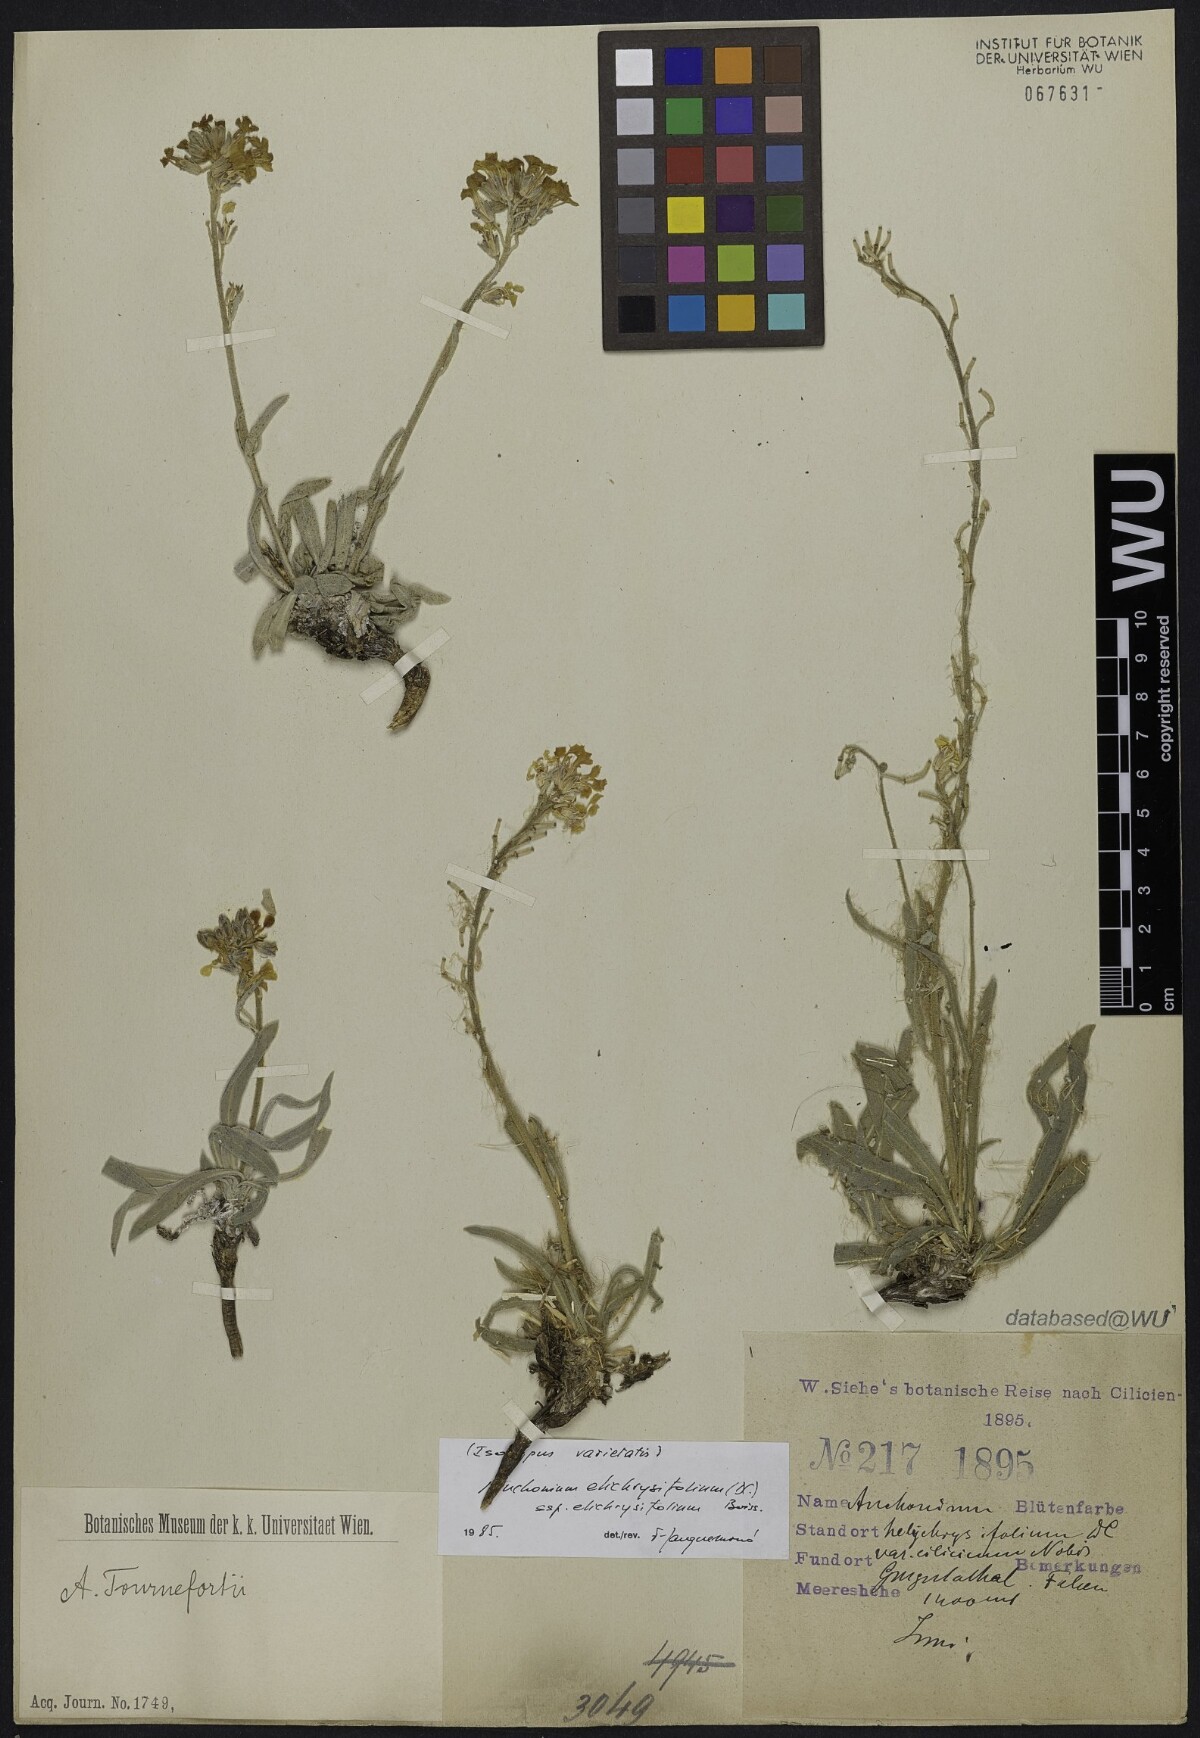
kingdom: Plantae
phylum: Tracheophyta
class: Magnoliopsida
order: Brassicales
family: Brassicaceae
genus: Anchonium
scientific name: Anchonium elichrysifolium
